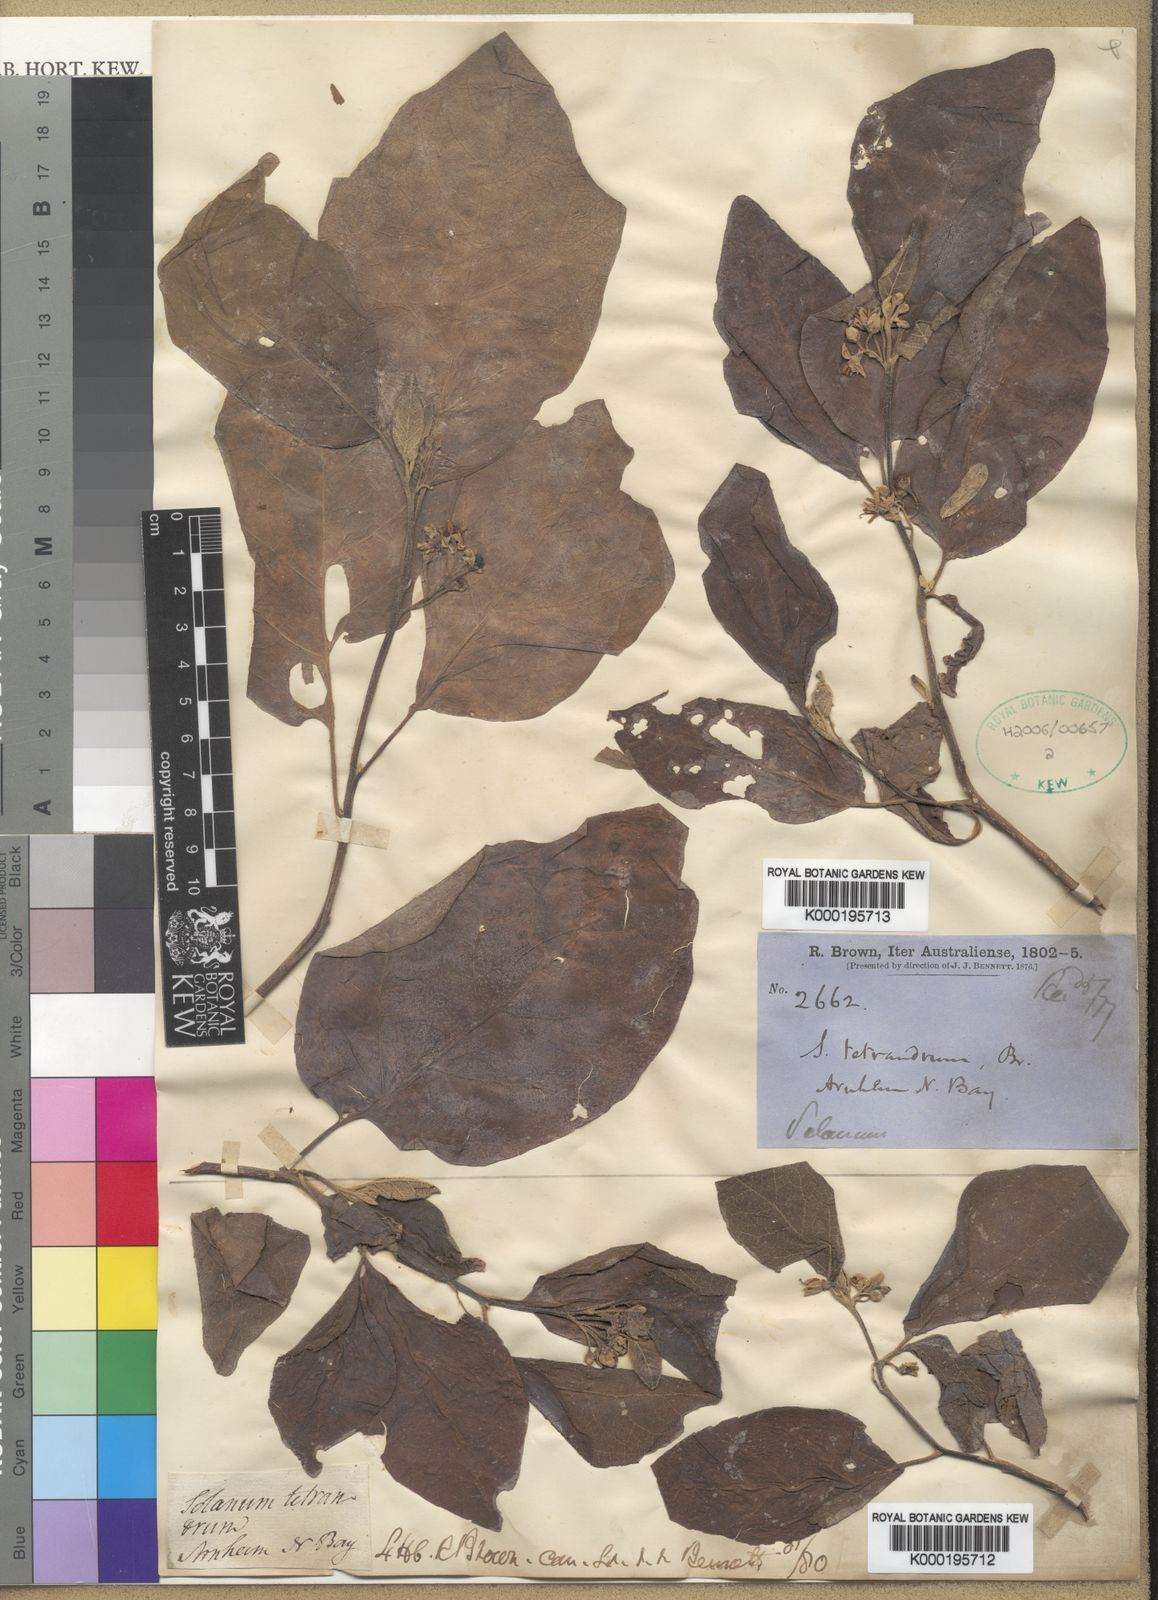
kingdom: Plantae
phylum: Tracheophyta
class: Magnoliopsida
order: Solanales
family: Solanaceae
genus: Solanum
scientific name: Solanum tetrandrum
